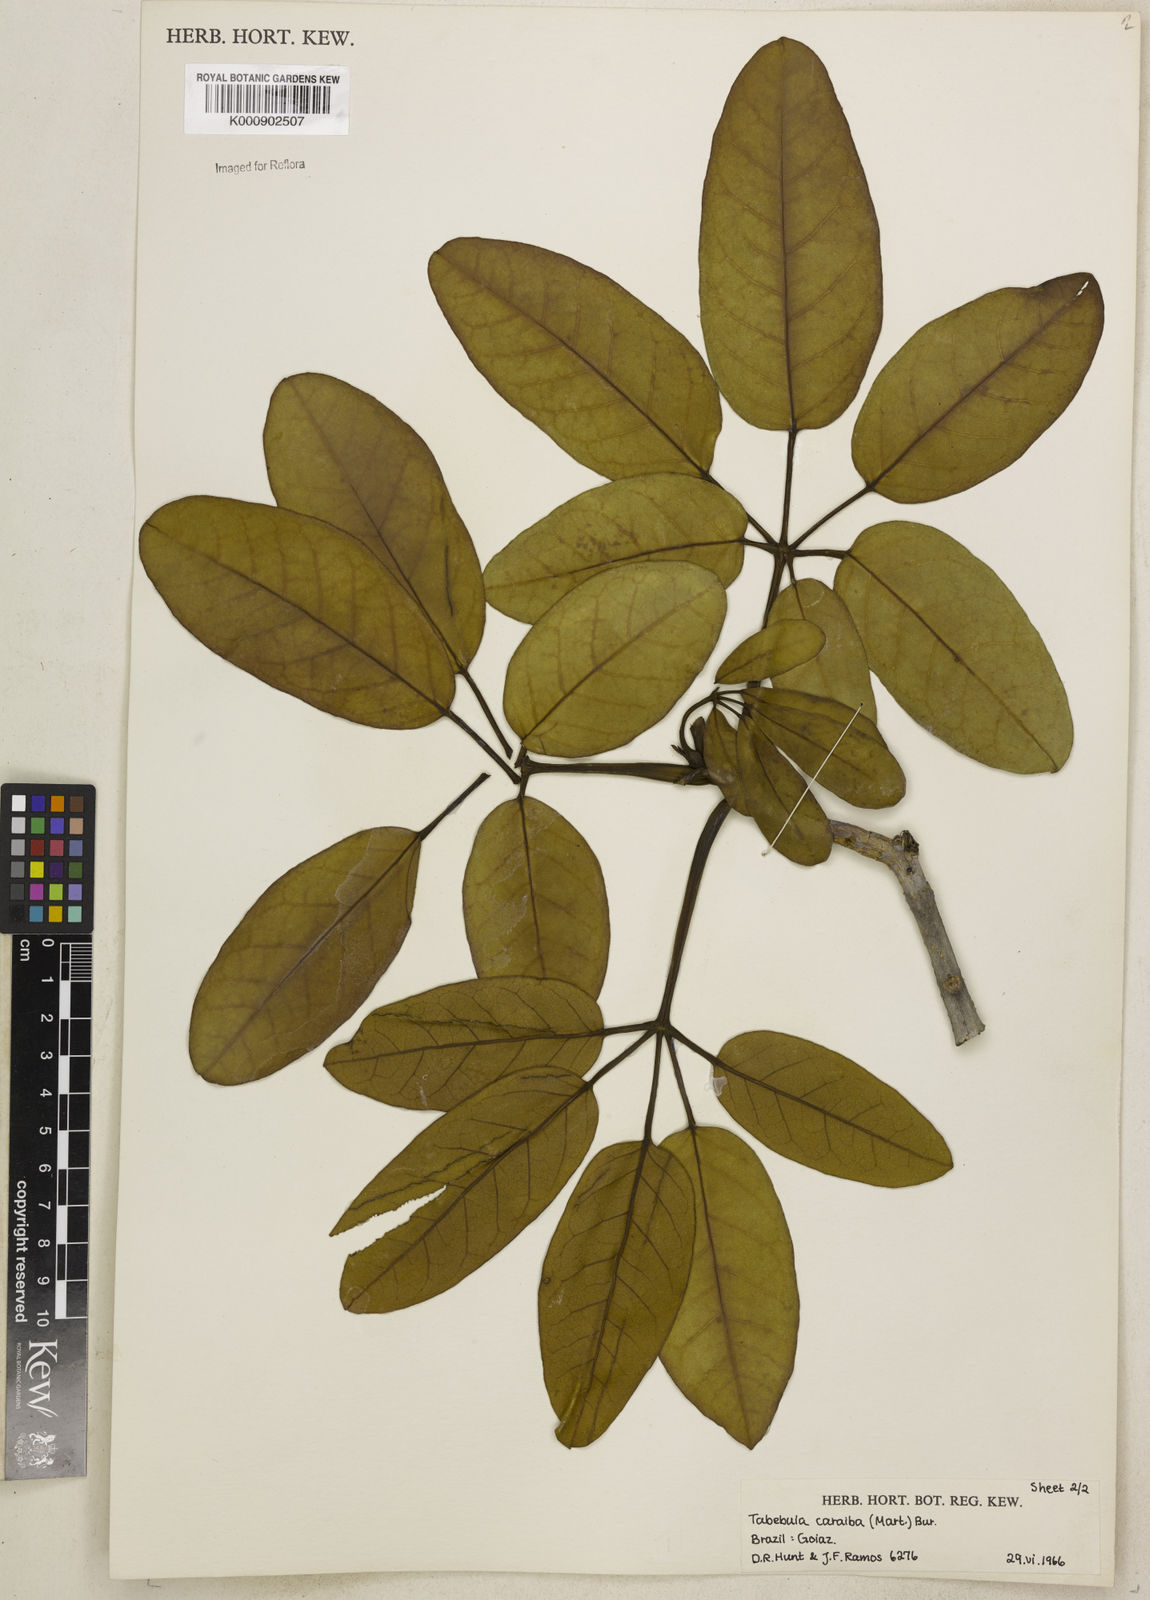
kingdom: Plantae
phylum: Tracheophyta
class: Magnoliopsida
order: Lamiales
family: Bignoniaceae
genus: Tabebuia
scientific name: Tabebuia aurea
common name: Caribbean trumpet-tree
